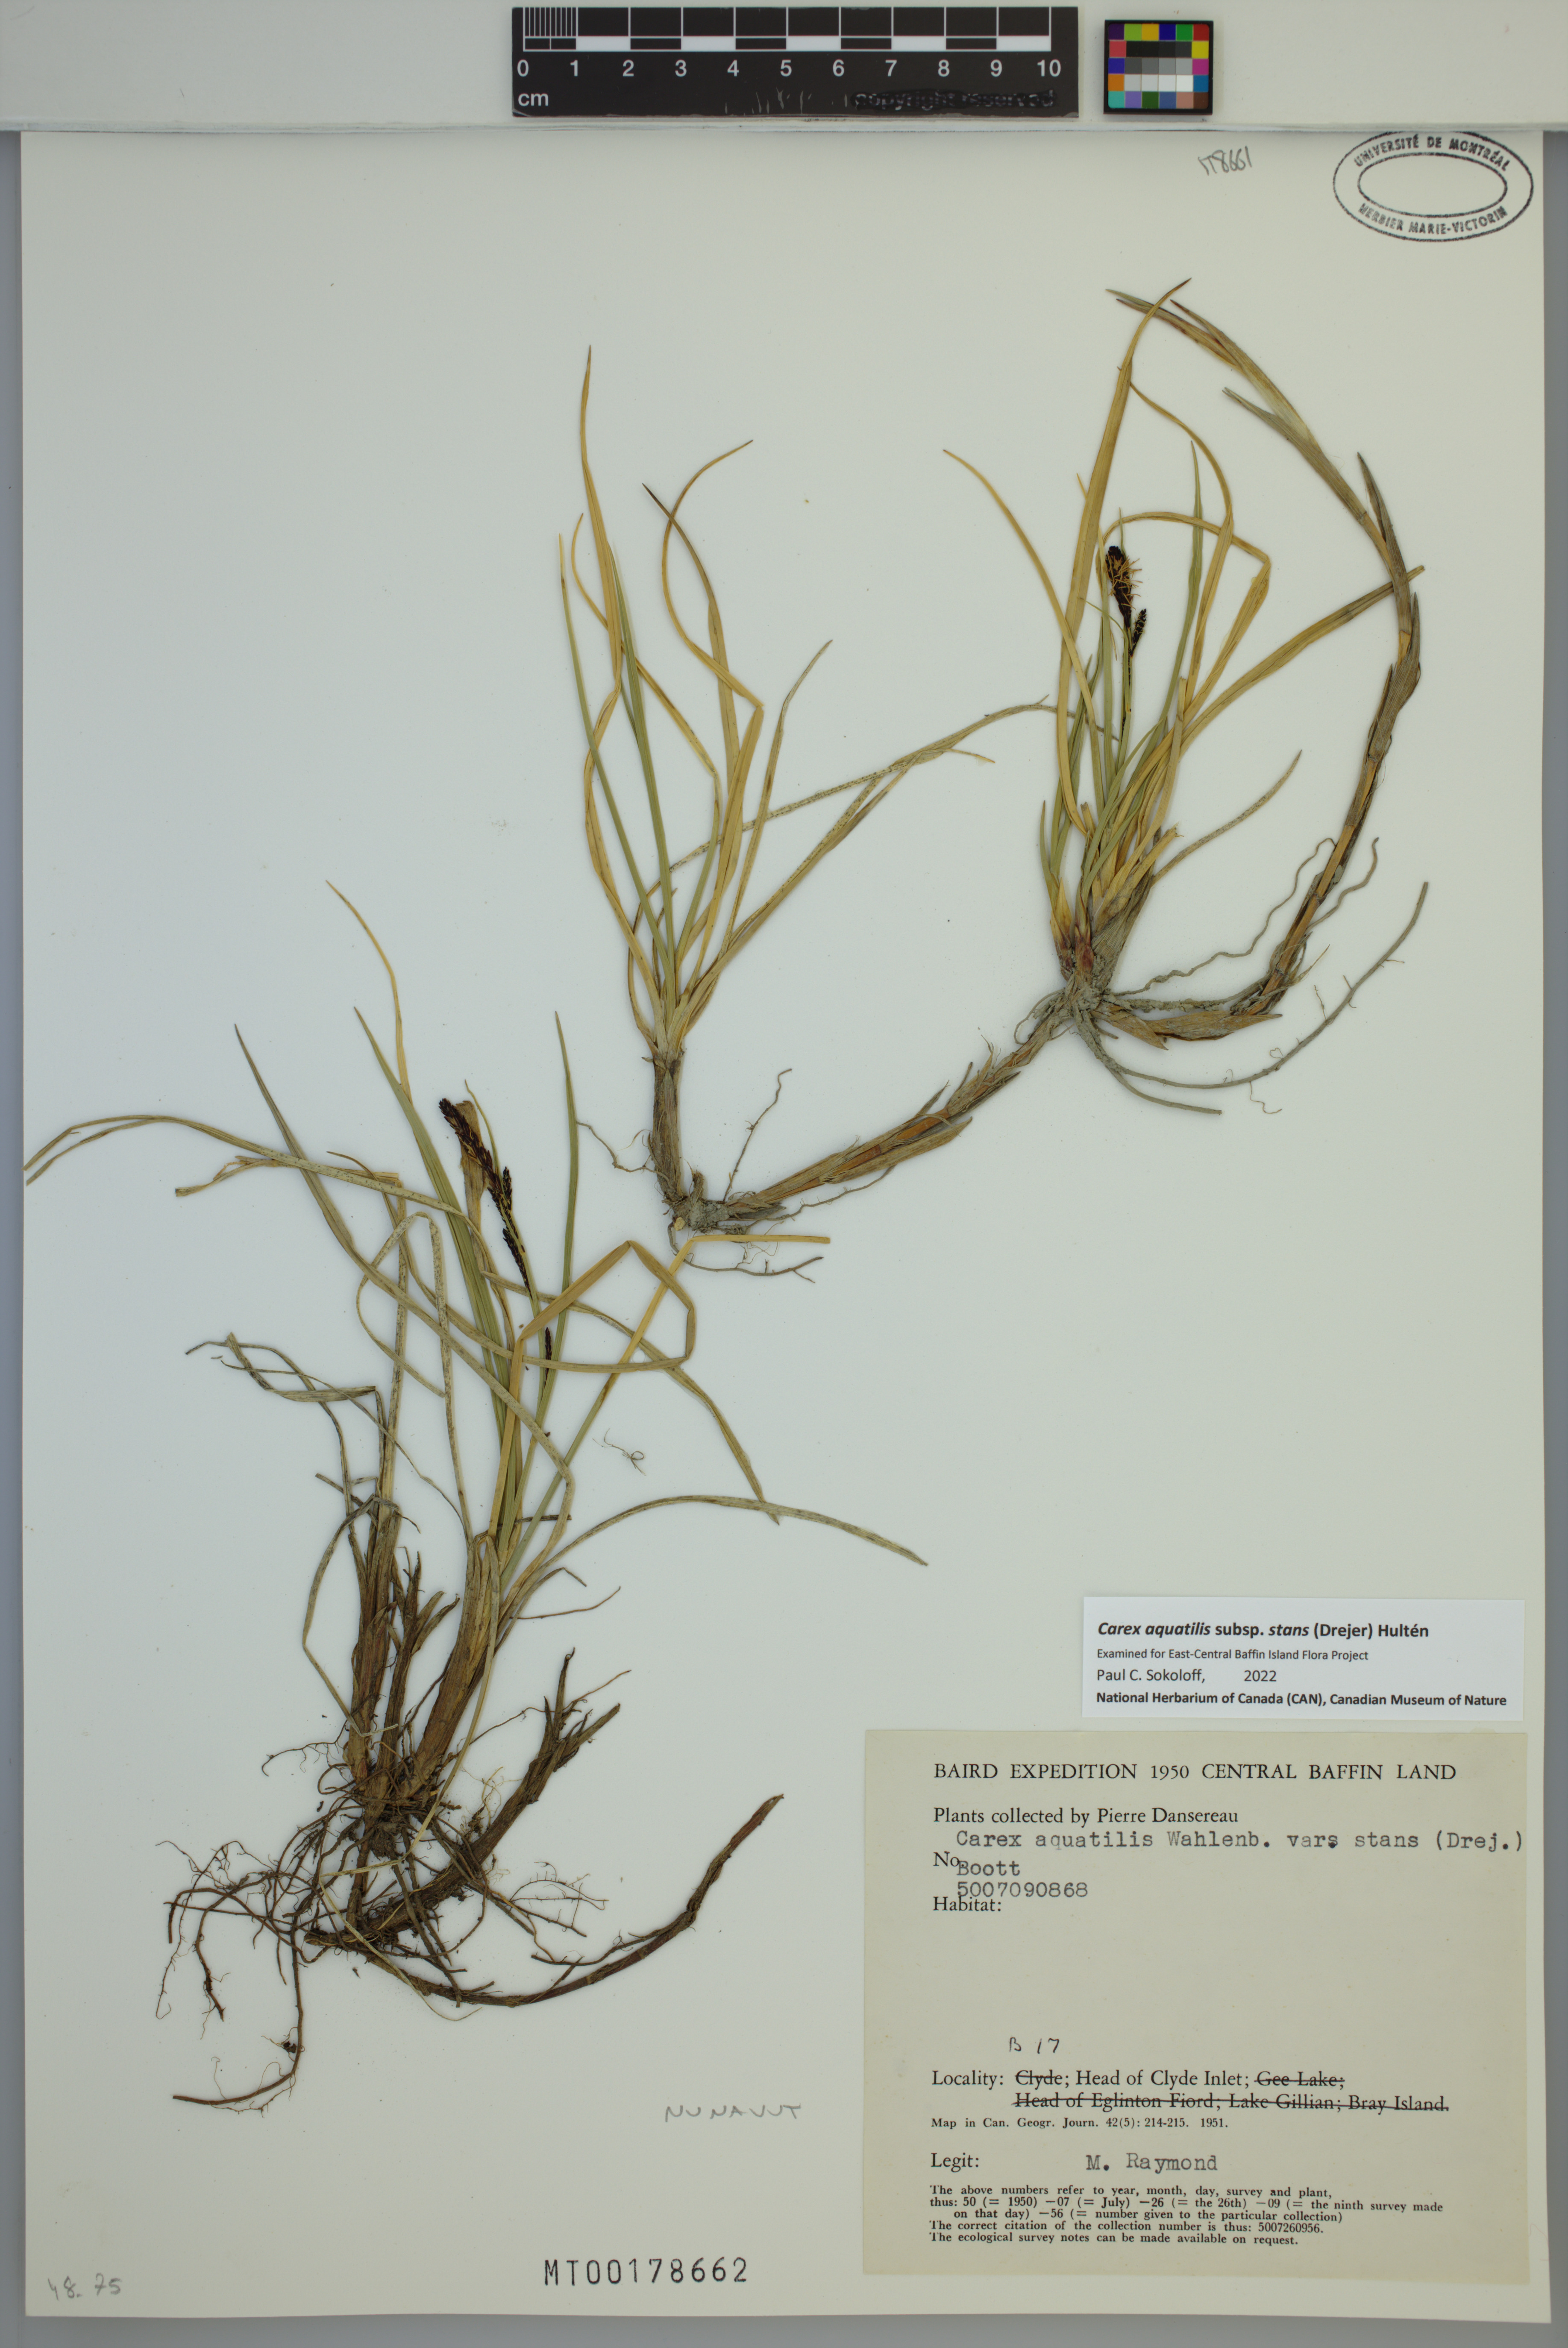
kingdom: Plantae
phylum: Tracheophyta
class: Liliopsida
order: Poales
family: Cyperaceae
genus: Carex
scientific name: Carex aquatilis
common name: Water sedge
